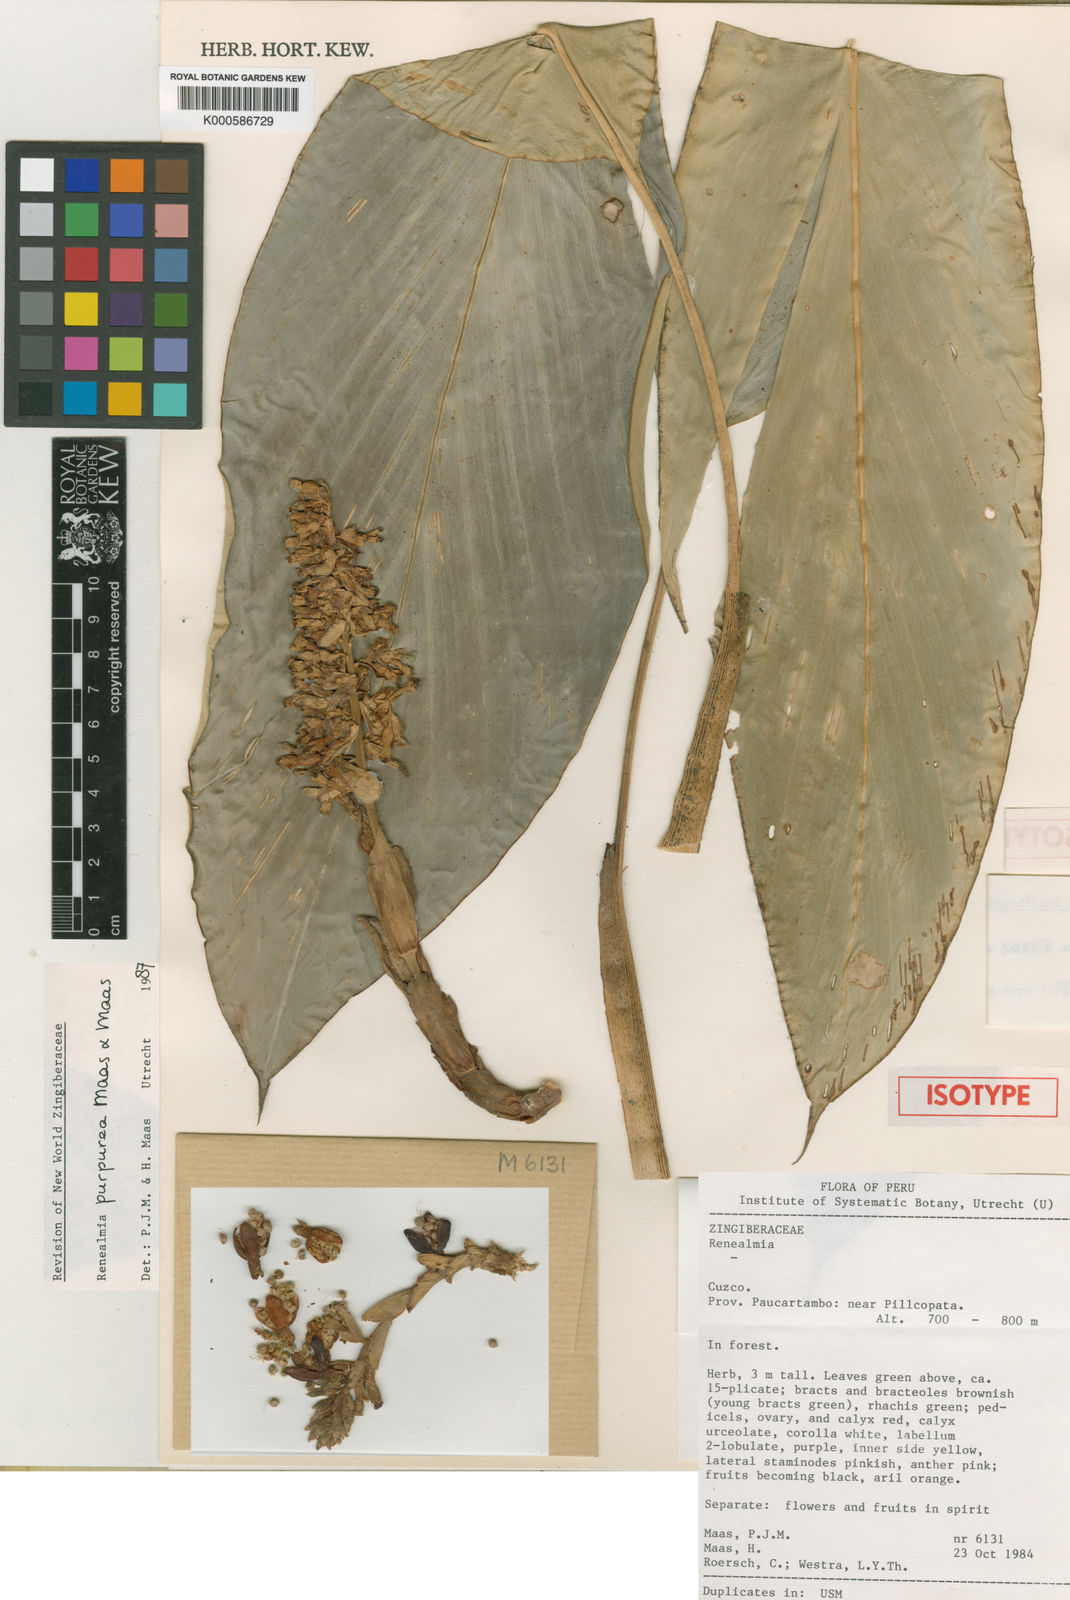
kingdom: Plantae
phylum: Tracheophyta
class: Liliopsida
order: Zingiberales
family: Zingiberaceae
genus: Renealmia
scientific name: Renealmia purpurea
